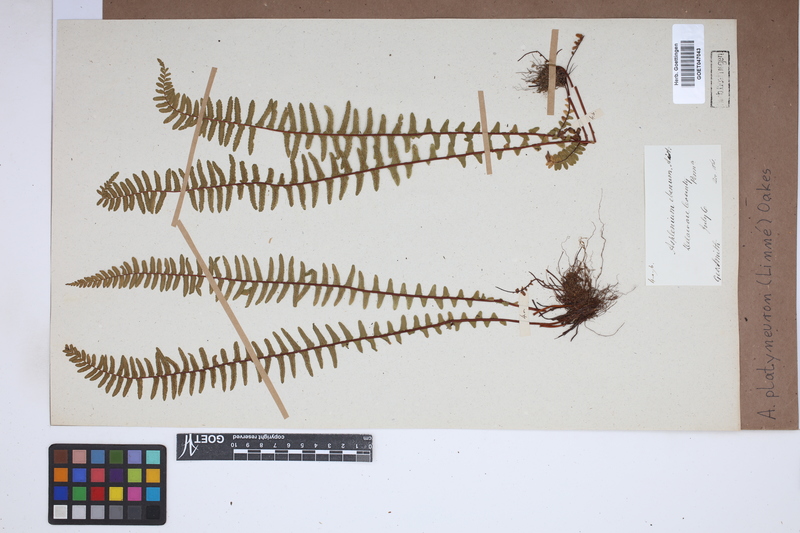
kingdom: Plantae
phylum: Tracheophyta
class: Polypodiopsida
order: Polypodiales
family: Aspleniaceae
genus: Asplenium
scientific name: Asplenium platyneuron
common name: Ebony spleenwort
